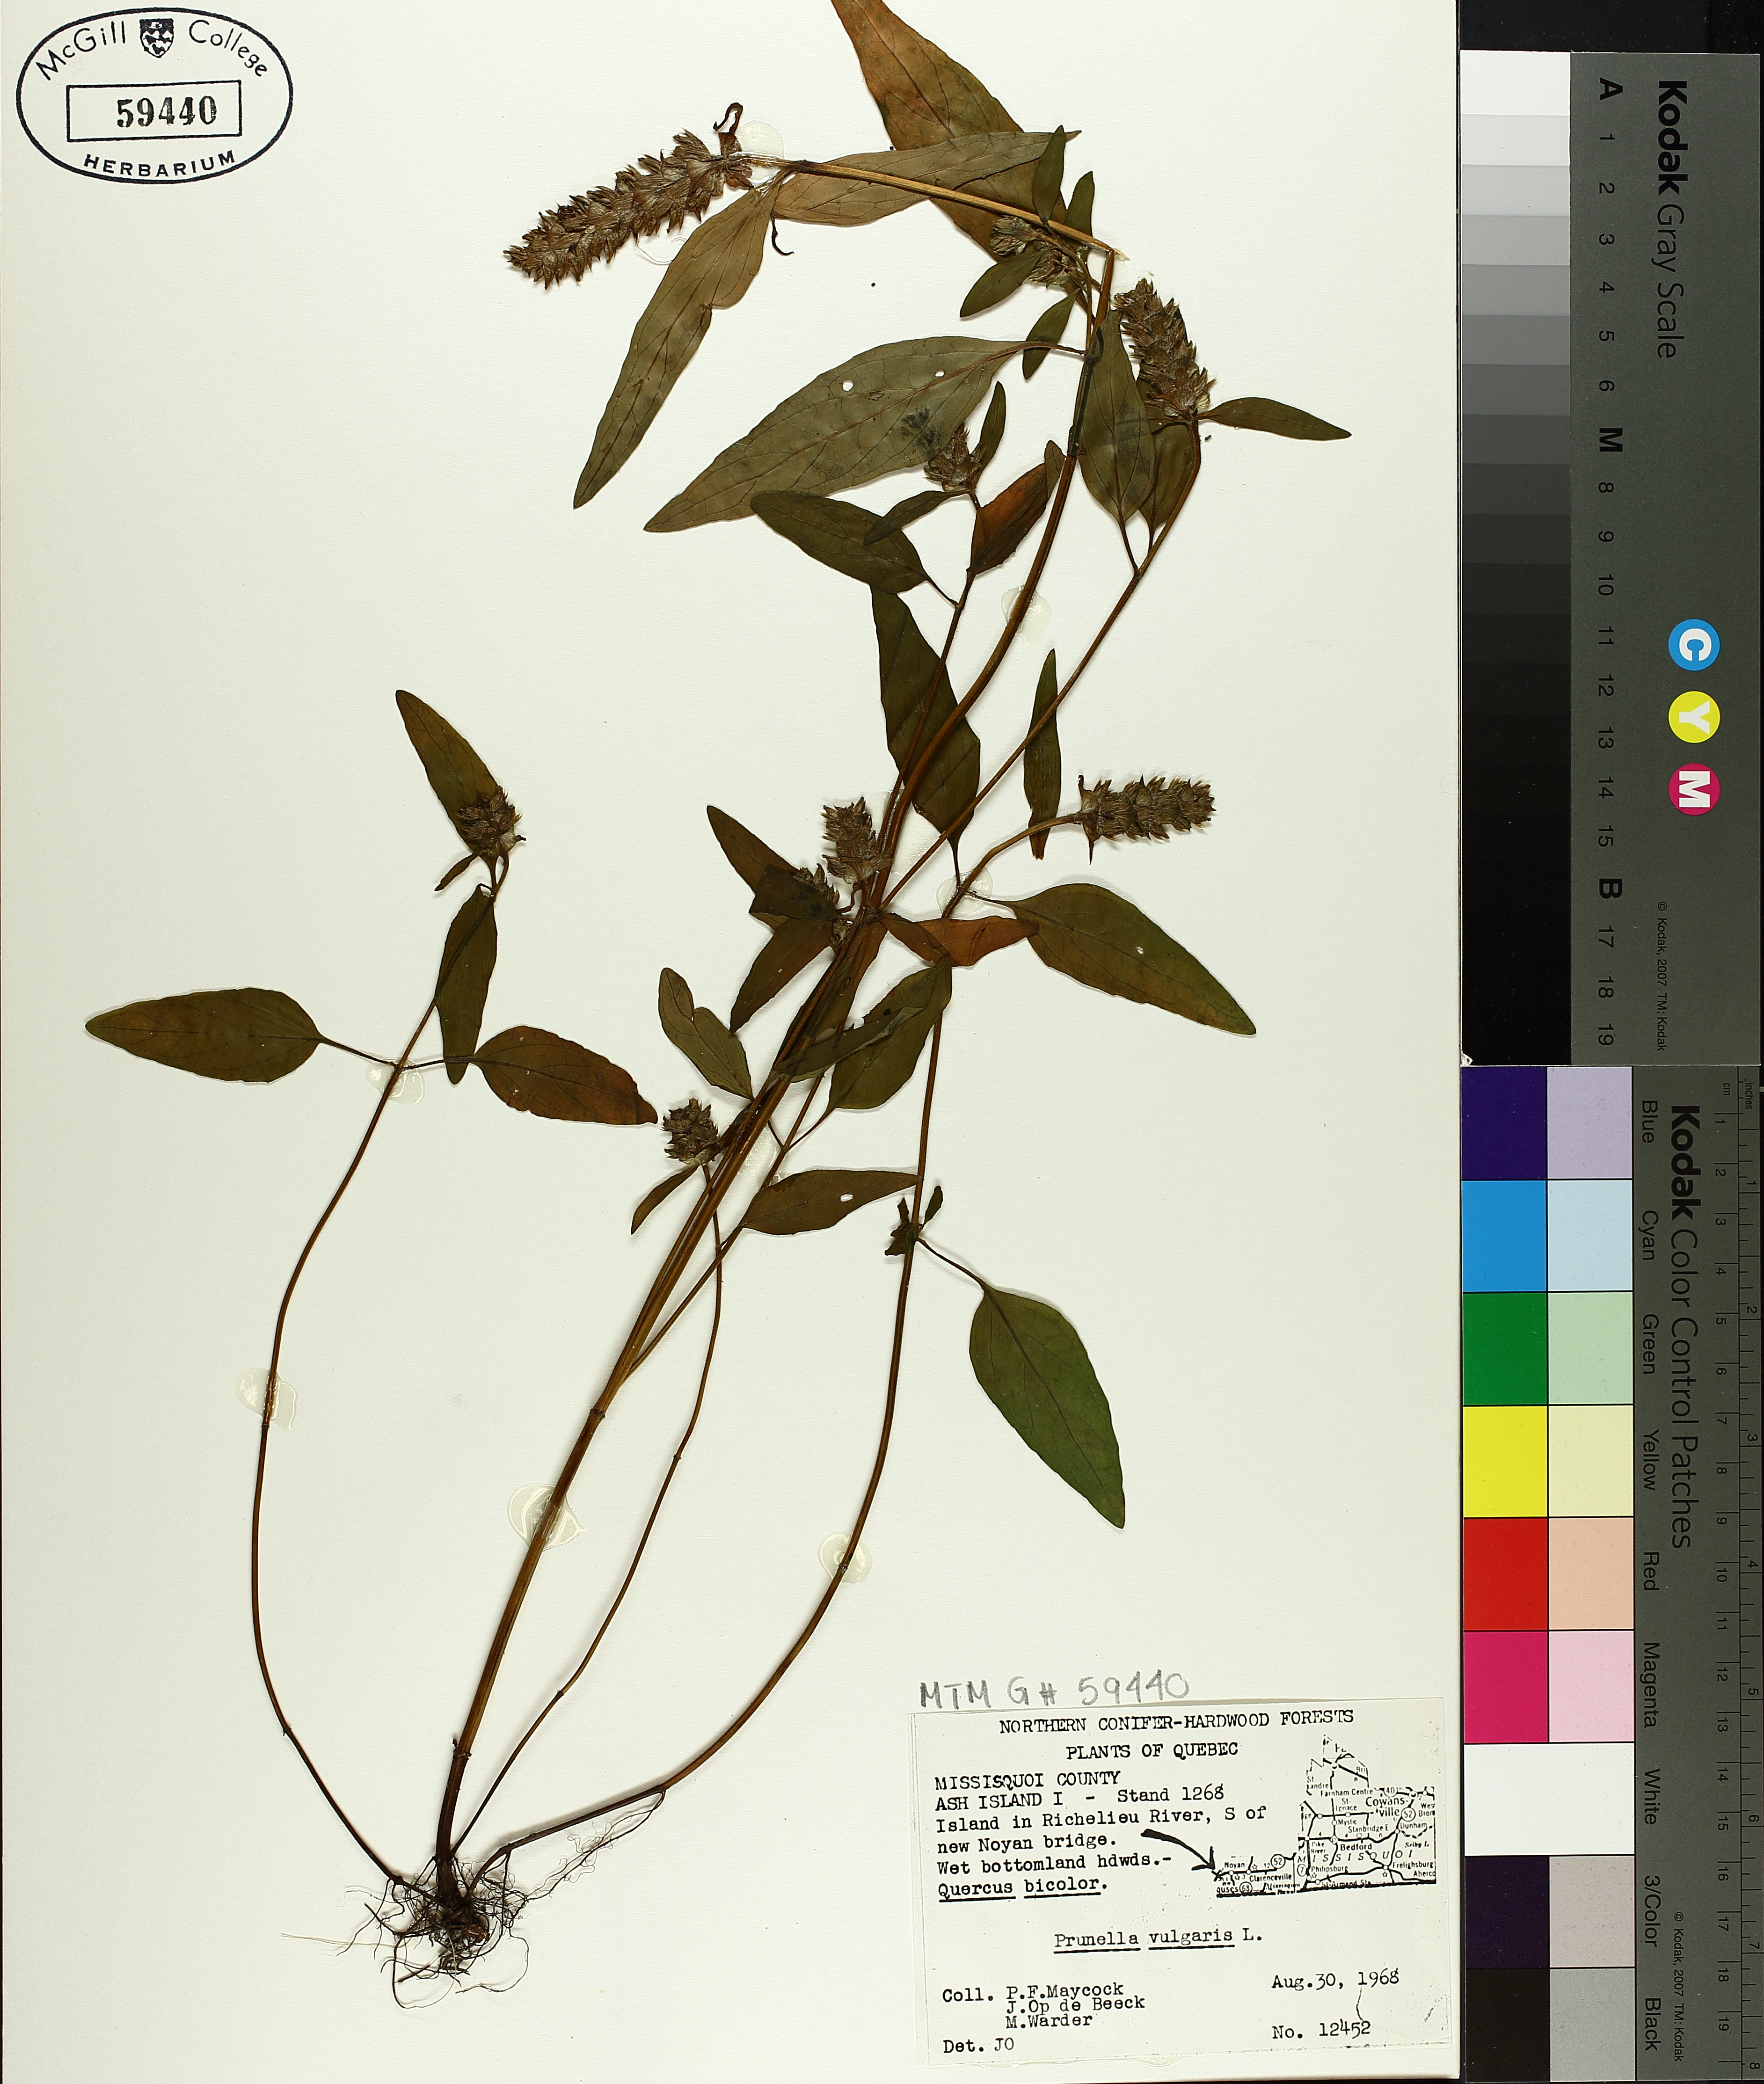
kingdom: Plantae
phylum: Tracheophyta
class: Magnoliopsida
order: Lamiales
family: Lamiaceae
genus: Prunella
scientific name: Prunella vulgaris
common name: Heal-all
